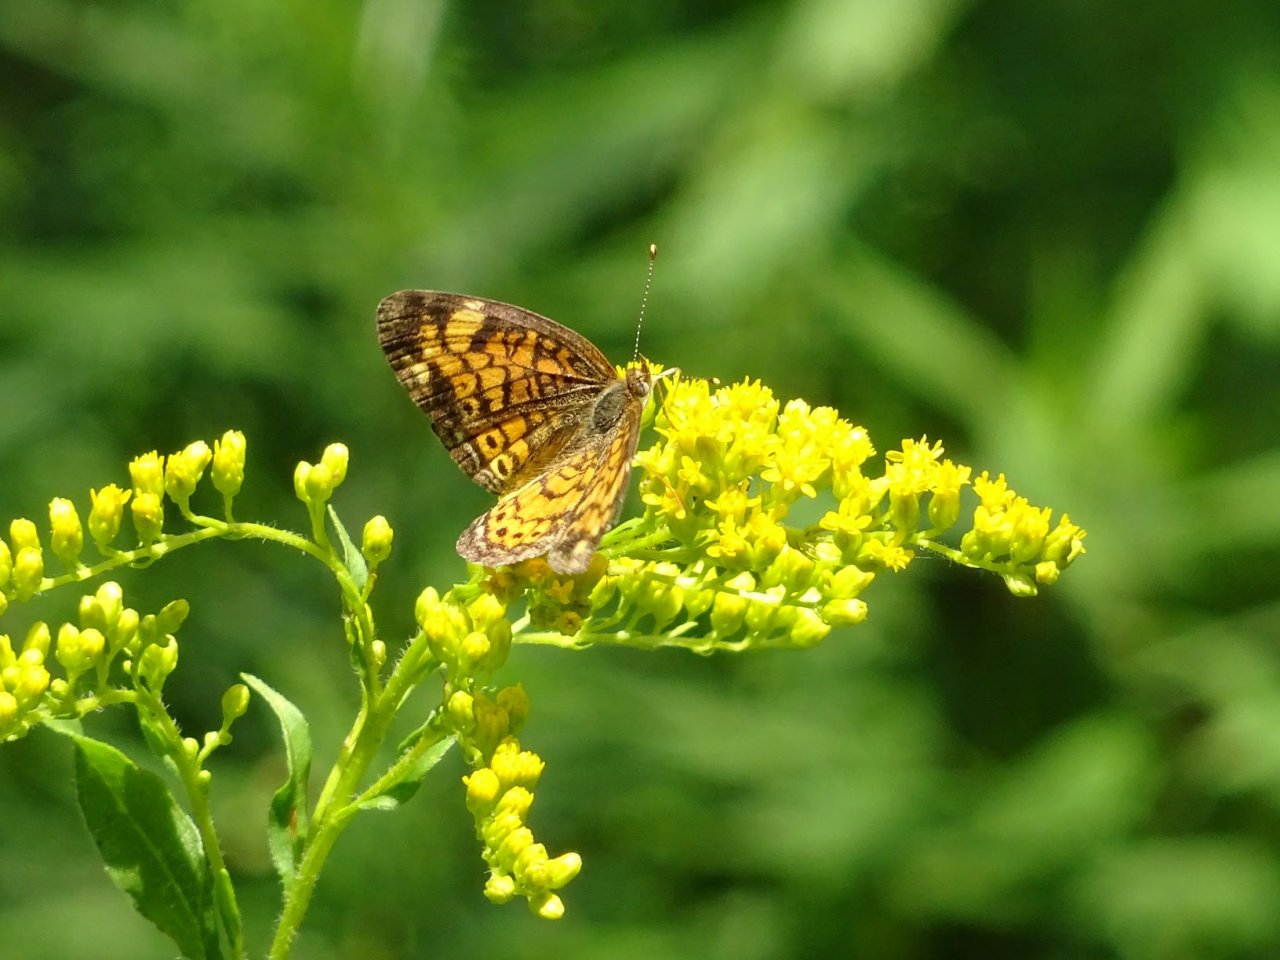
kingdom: Animalia
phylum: Arthropoda
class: Insecta
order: Lepidoptera
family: Nymphalidae
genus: Phyciodes
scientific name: Phyciodes tharos
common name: Pearl Crescent
